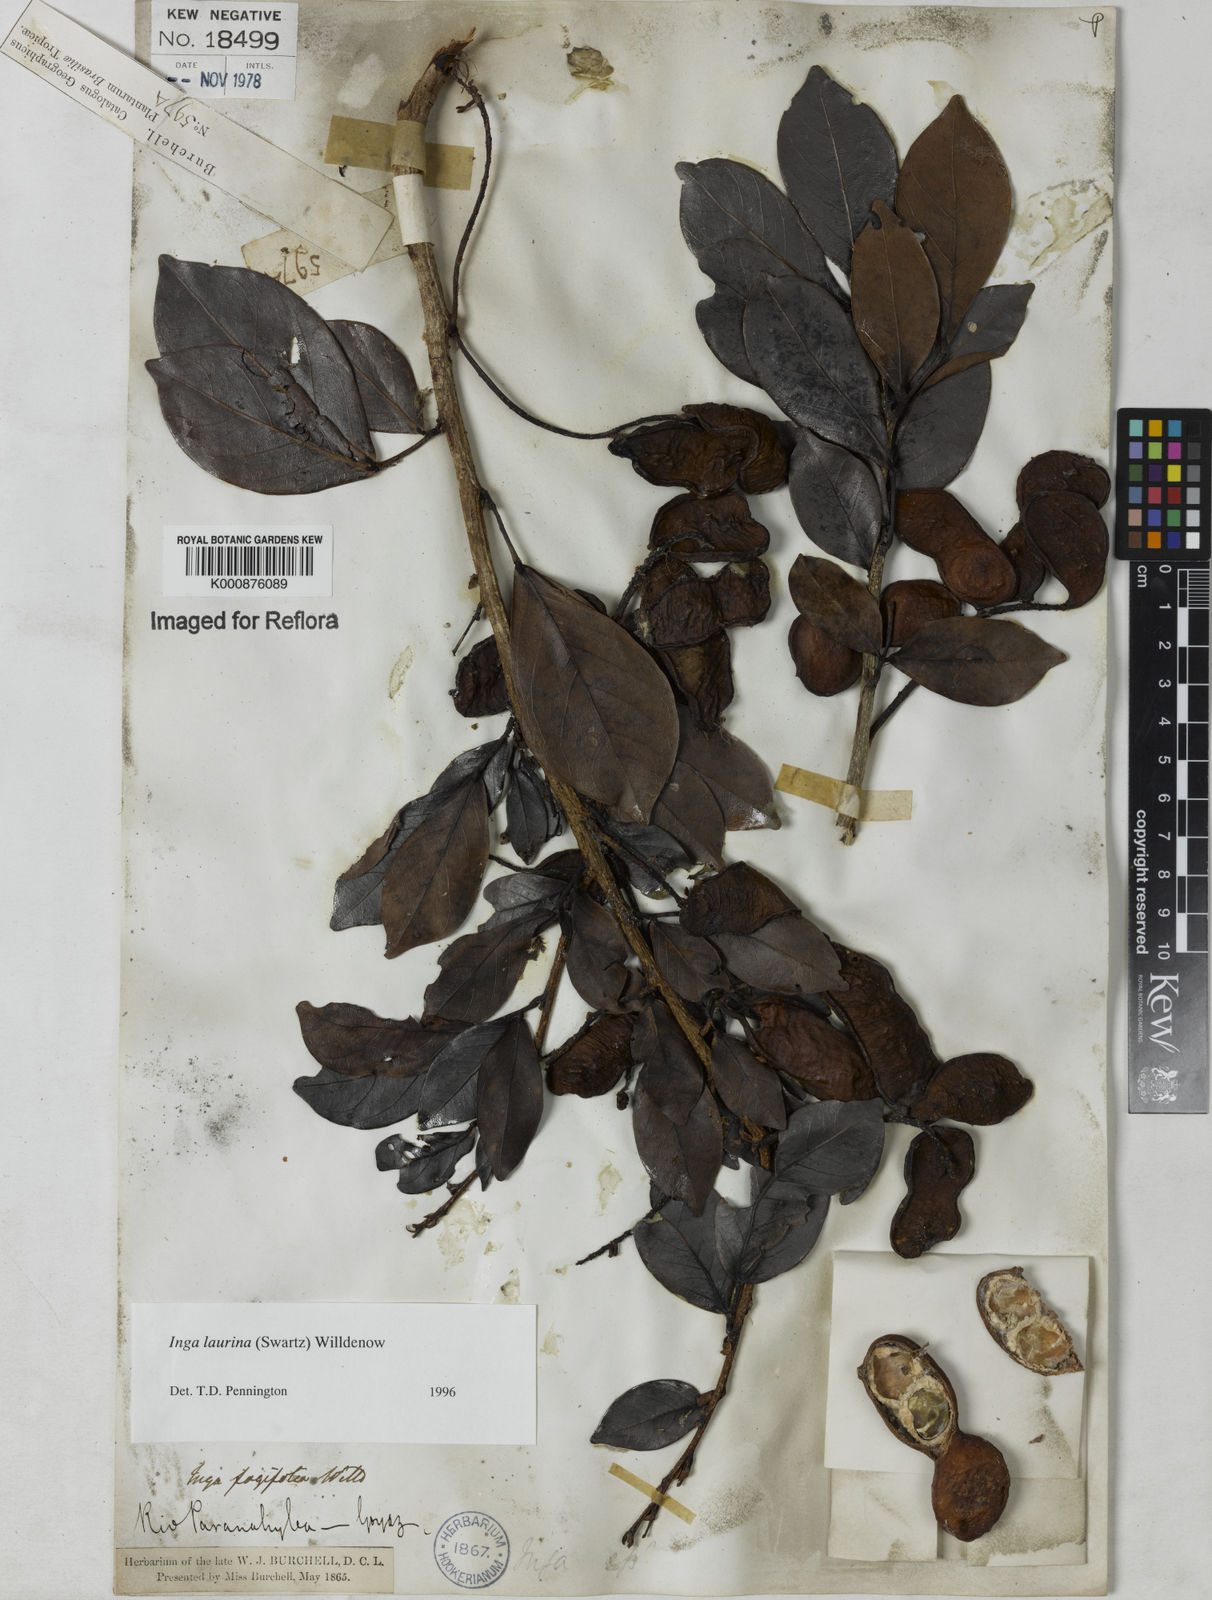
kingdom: Plantae
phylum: Tracheophyta
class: Magnoliopsida
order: Fabales
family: Fabaceae
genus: Inga
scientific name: Inga laurina
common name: Red wood
